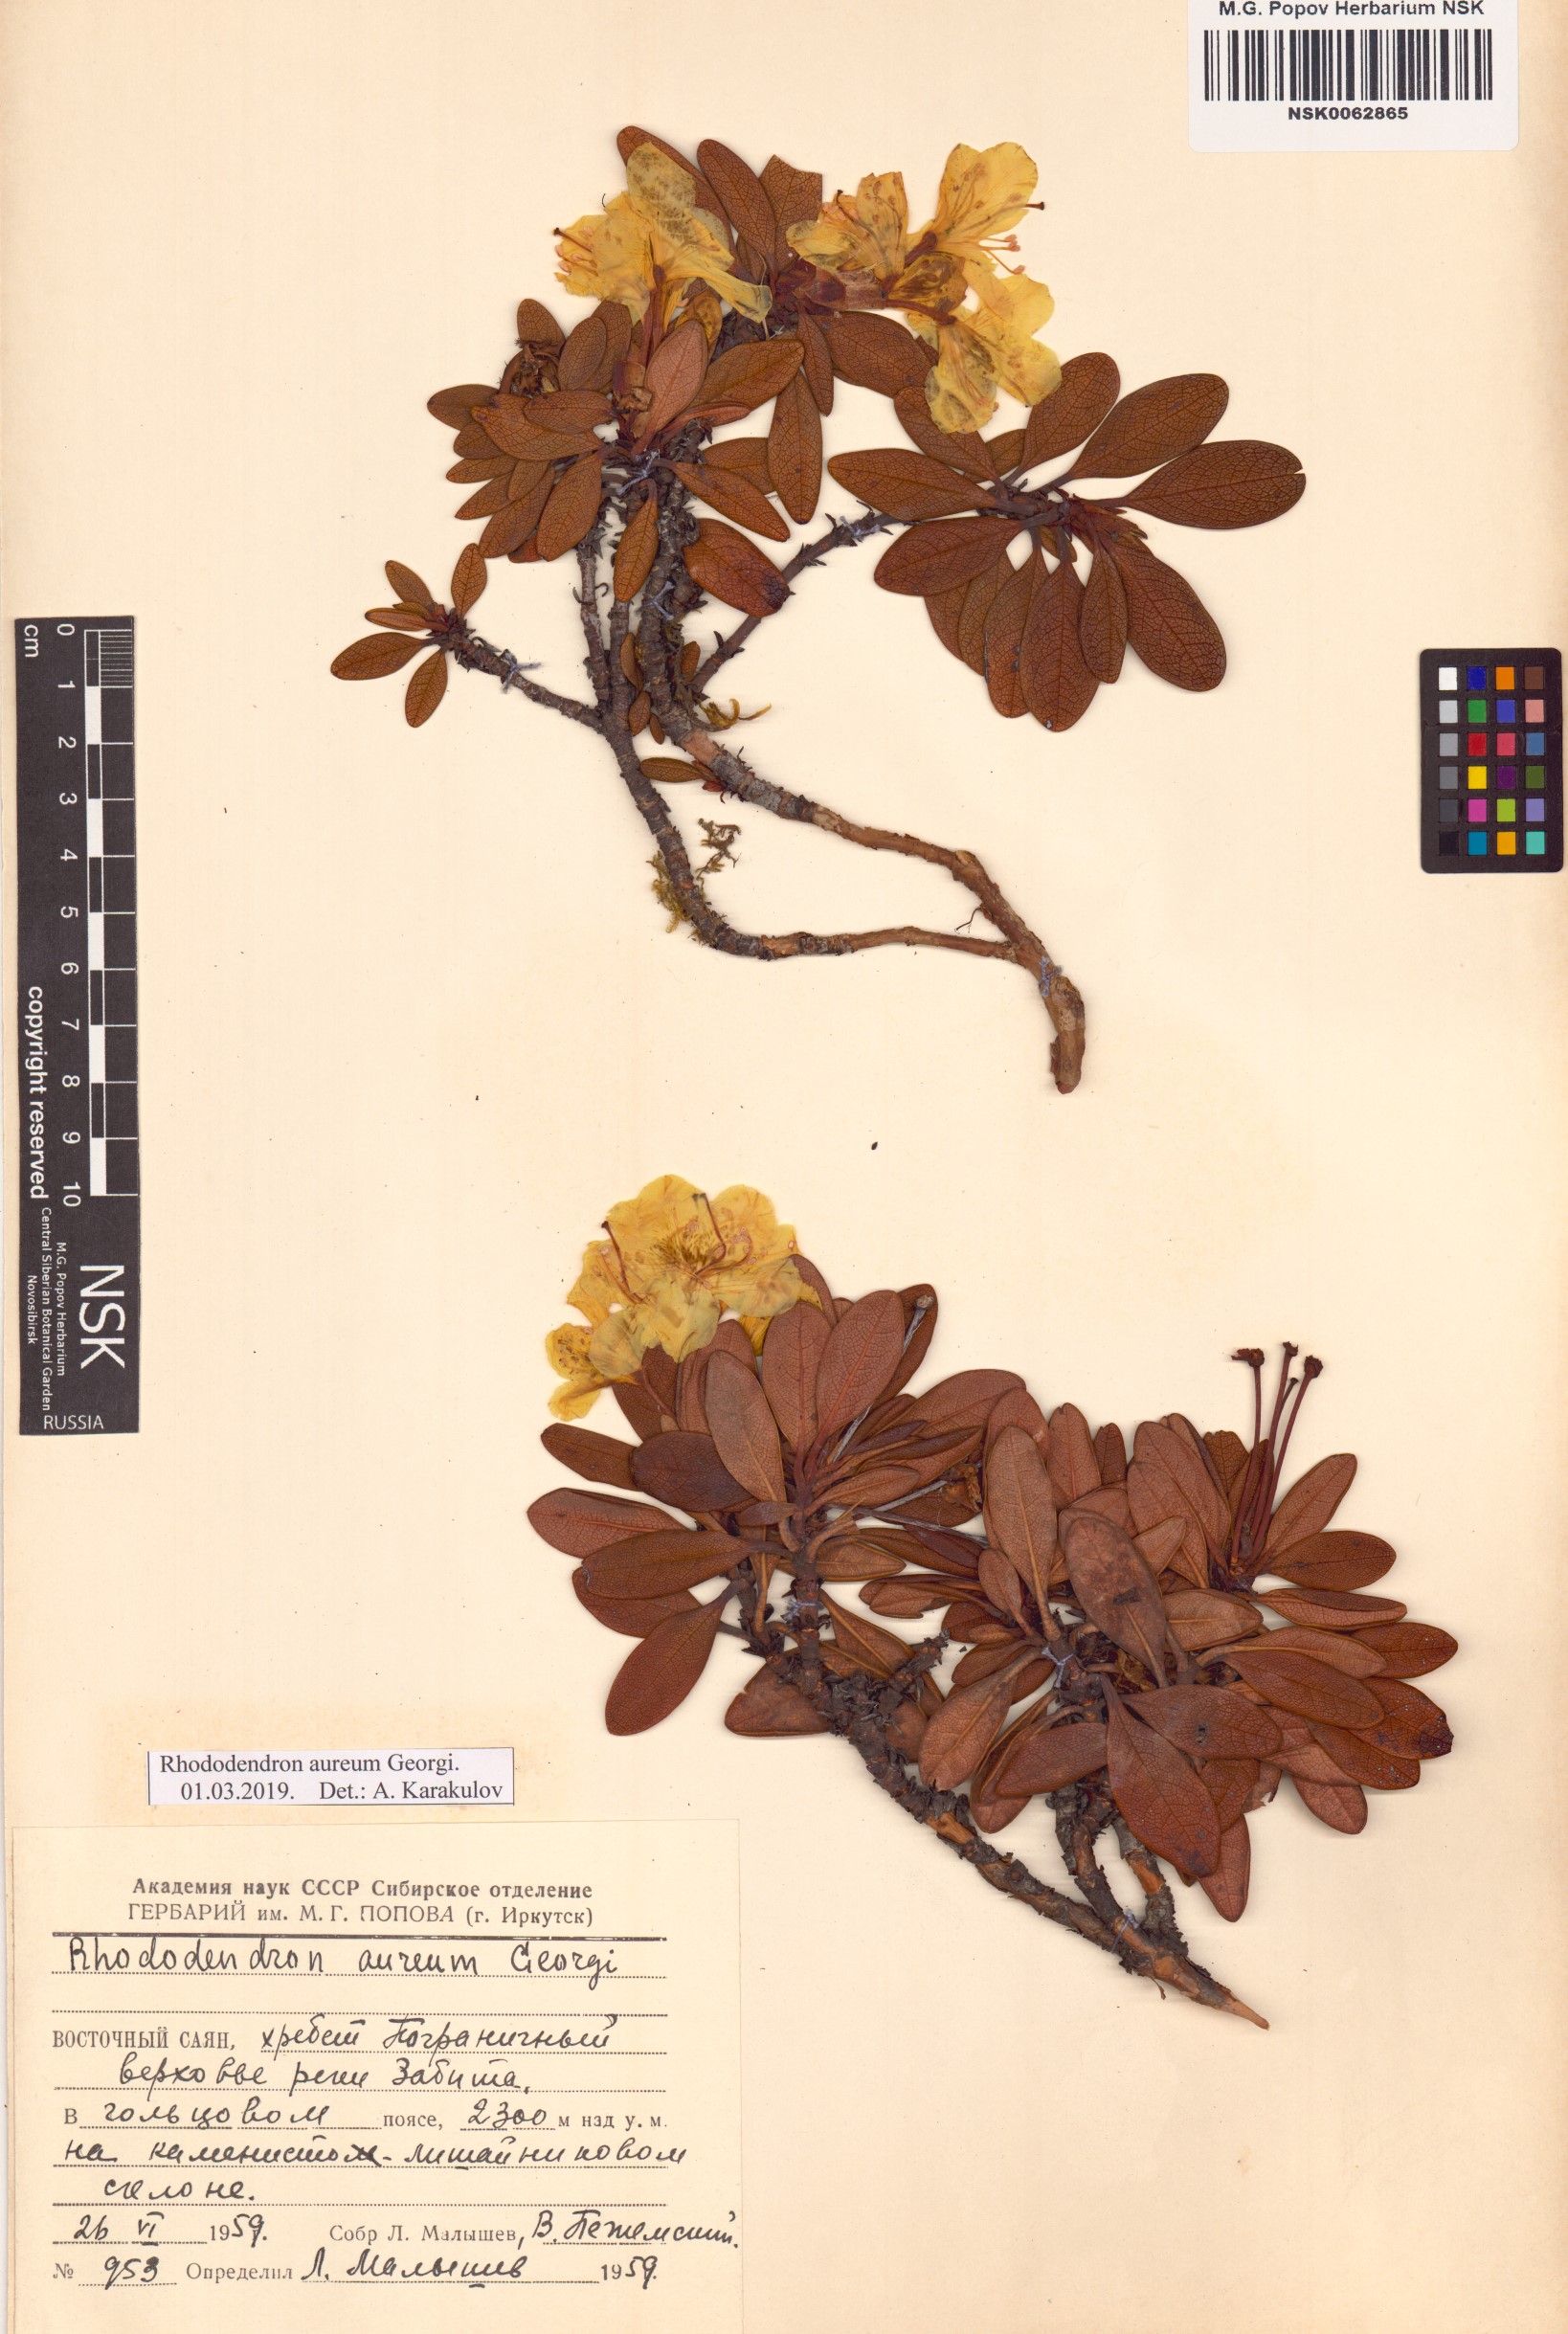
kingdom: Plantae
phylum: Tracheophyta
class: Magnoliopsida
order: Ericales
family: Ericaceae
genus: Rhododendron
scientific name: Rhododendron aureum
